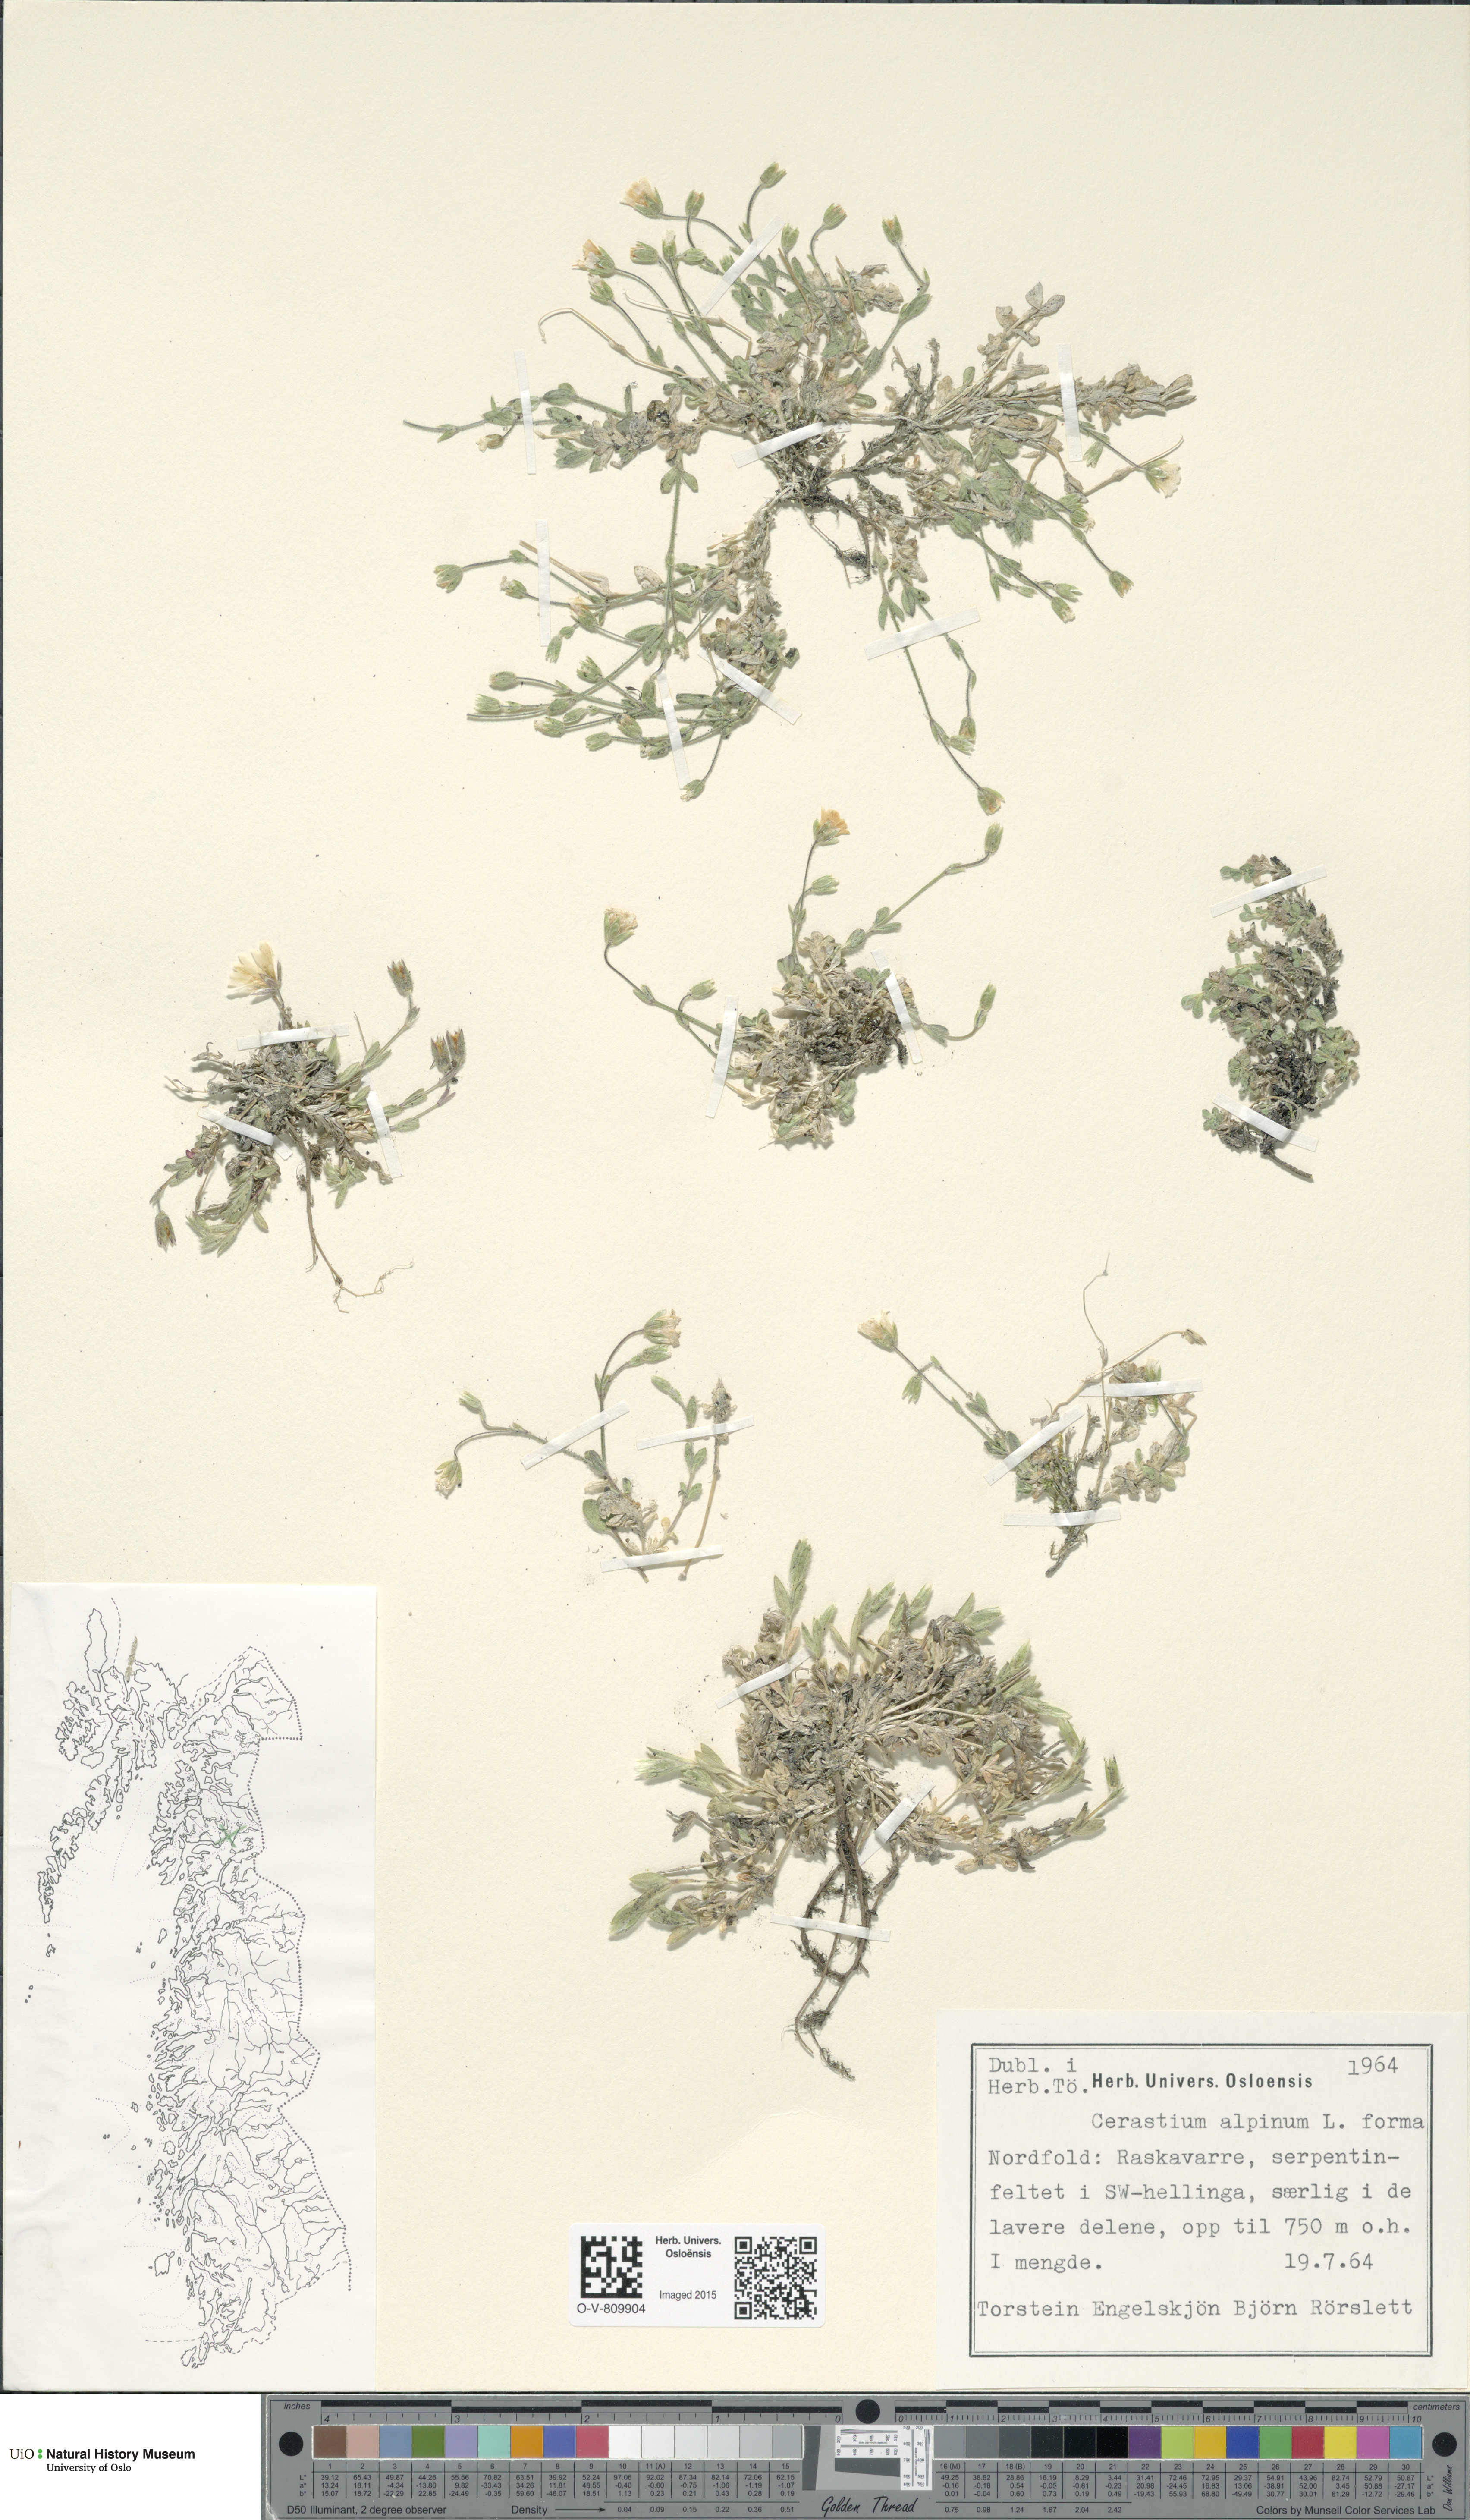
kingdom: Plantae
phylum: Tracheophyta
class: Magnoliopsida
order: Caryophyllales
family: Caryophyllaceae
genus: Cerastium
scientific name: Cerastium alpinum
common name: Alpine mouse-ear
